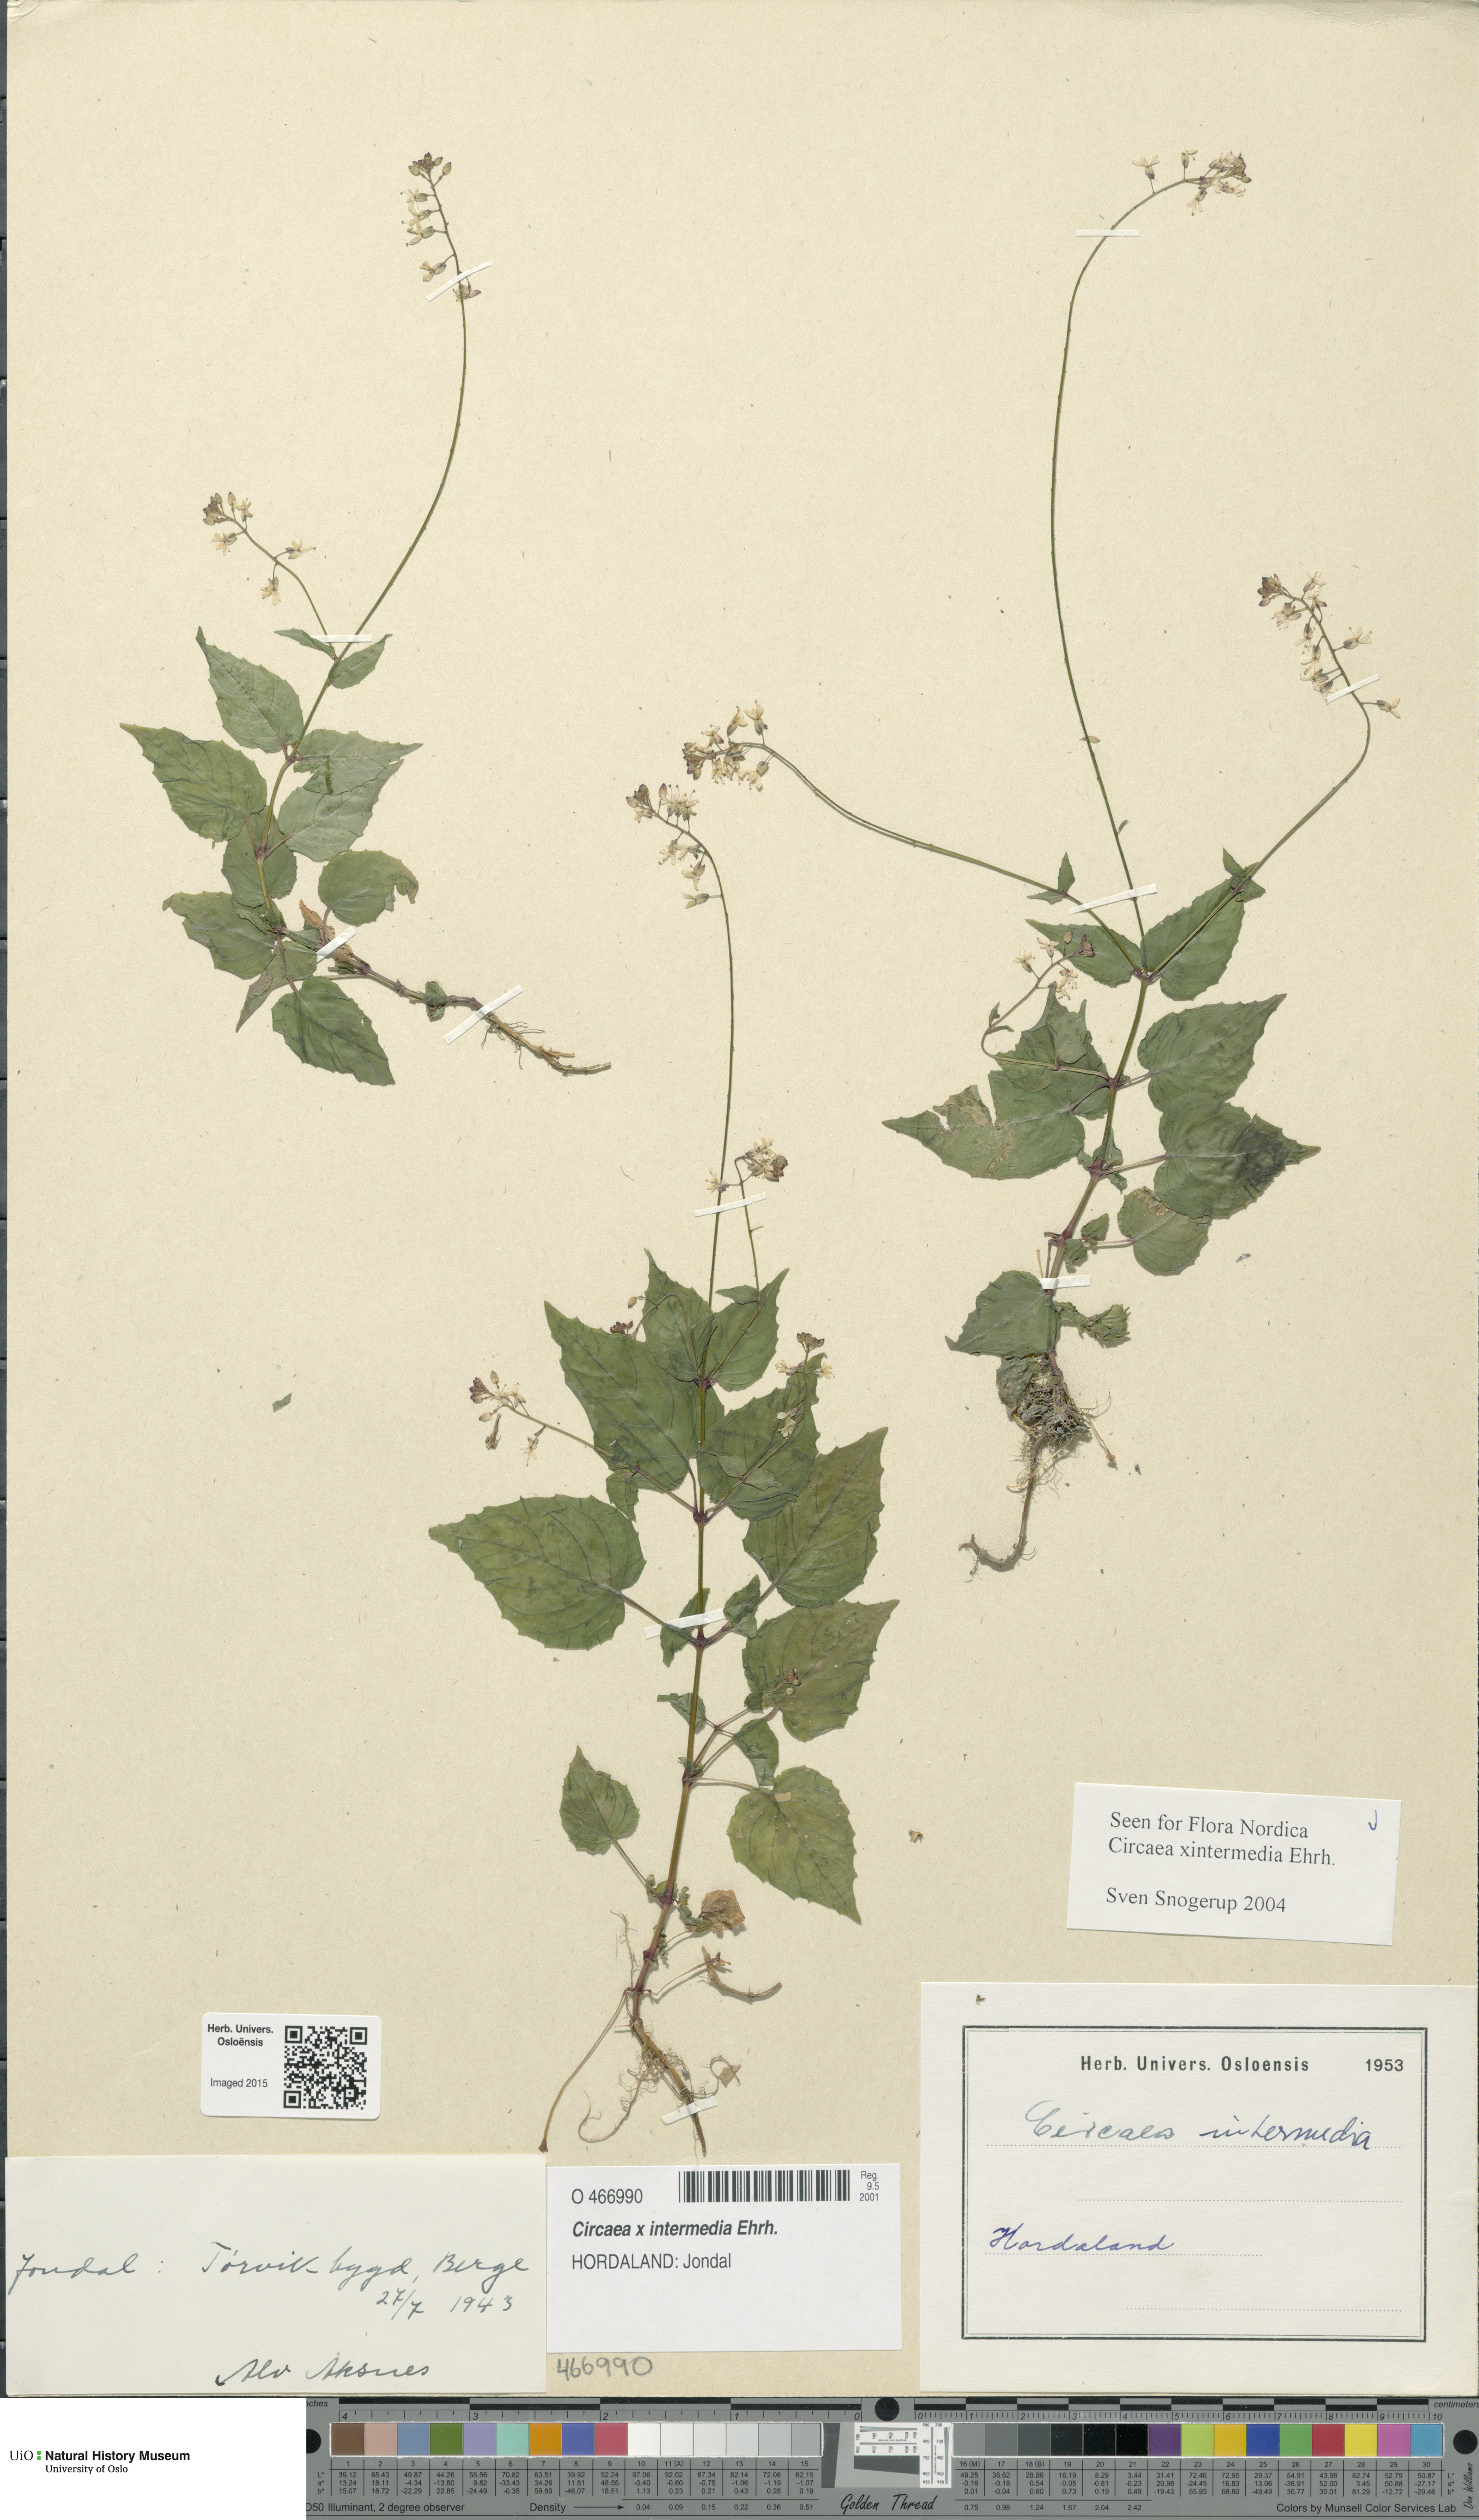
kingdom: Plantae
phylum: Tracheophyta
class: Magnoliopsida
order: Myrtales
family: Onagraceae
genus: Circaea
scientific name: Circaea intermedia
